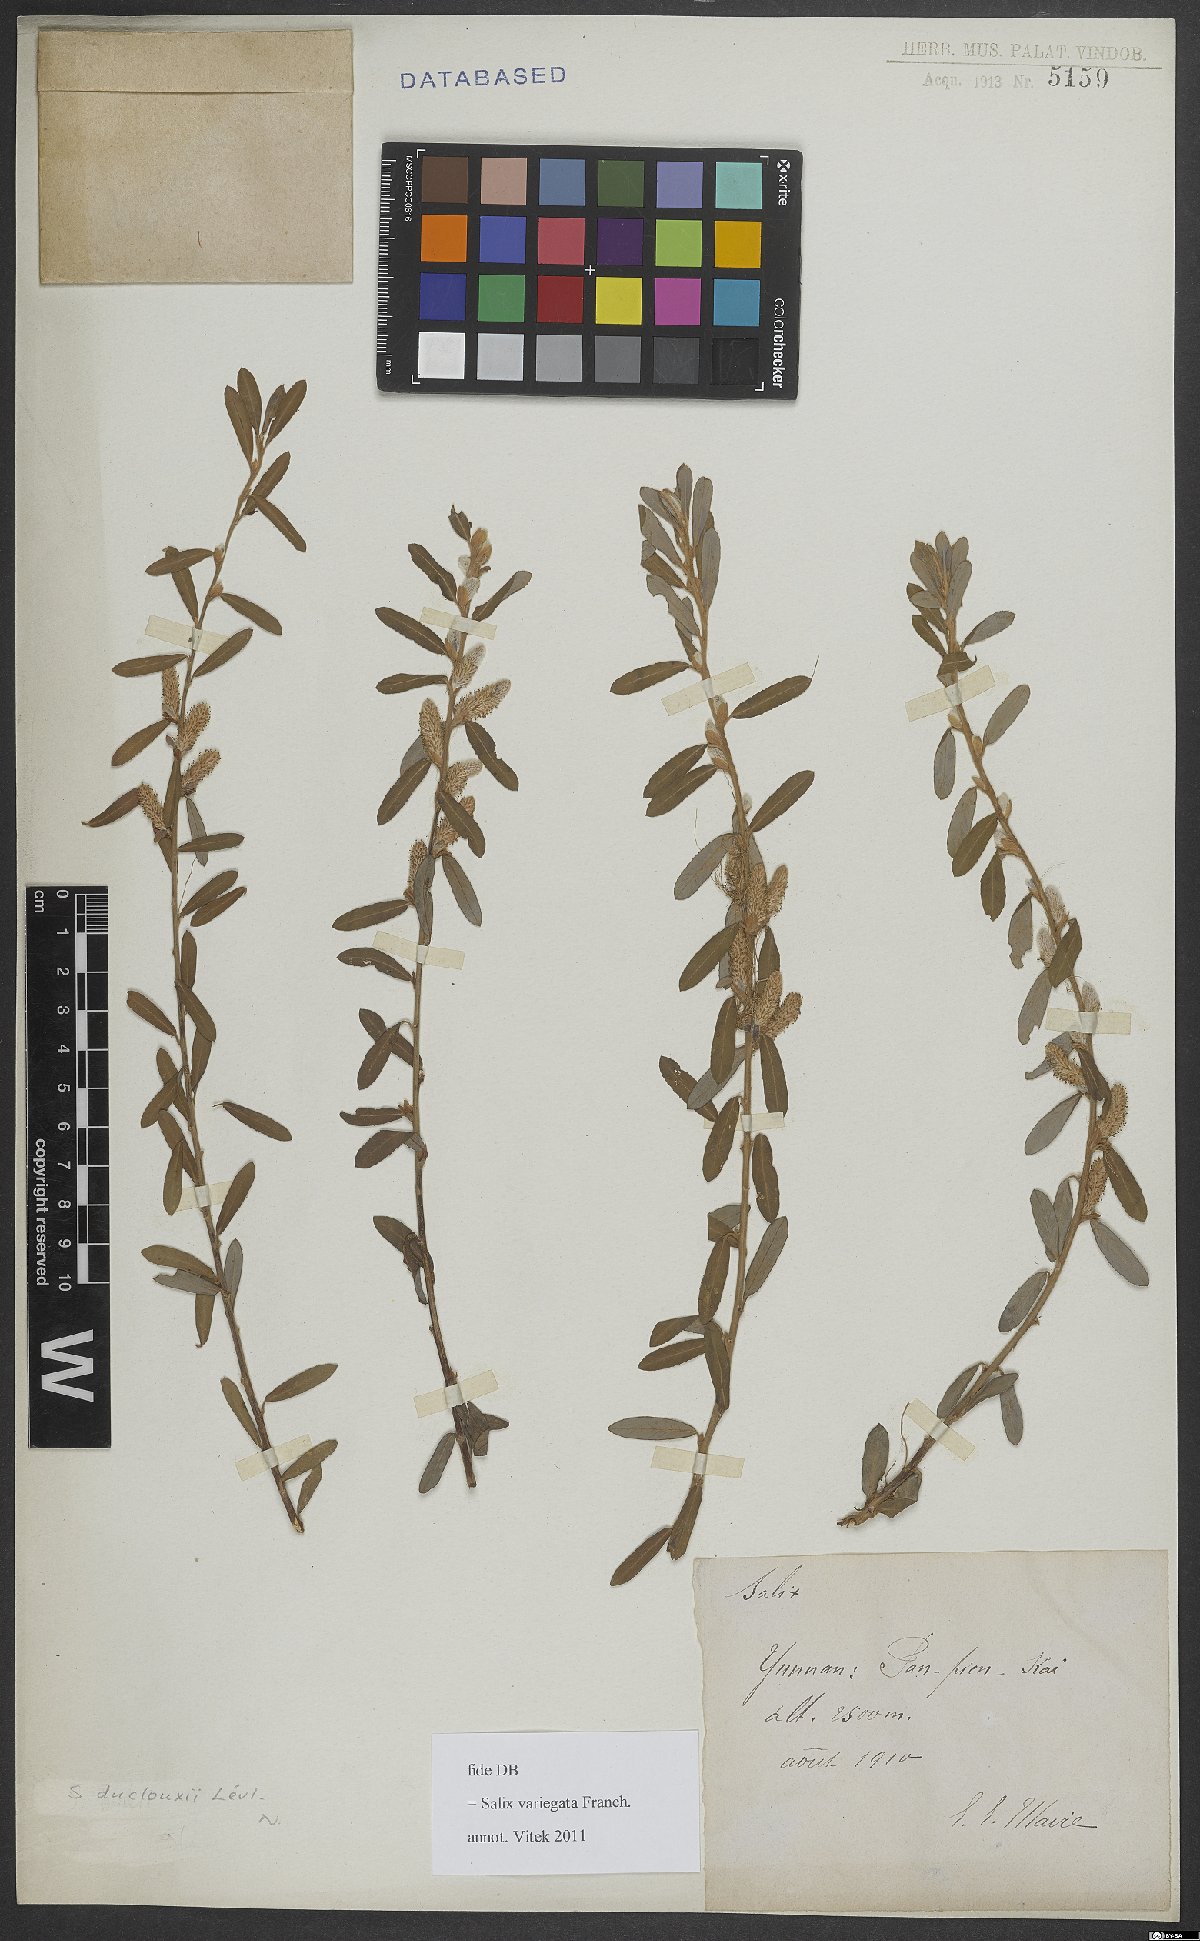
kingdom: Plantae
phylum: Tracheophyta
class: Magnoliopsida
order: Malpighiales
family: Salicaceae
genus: Salix
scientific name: Salix variegata
